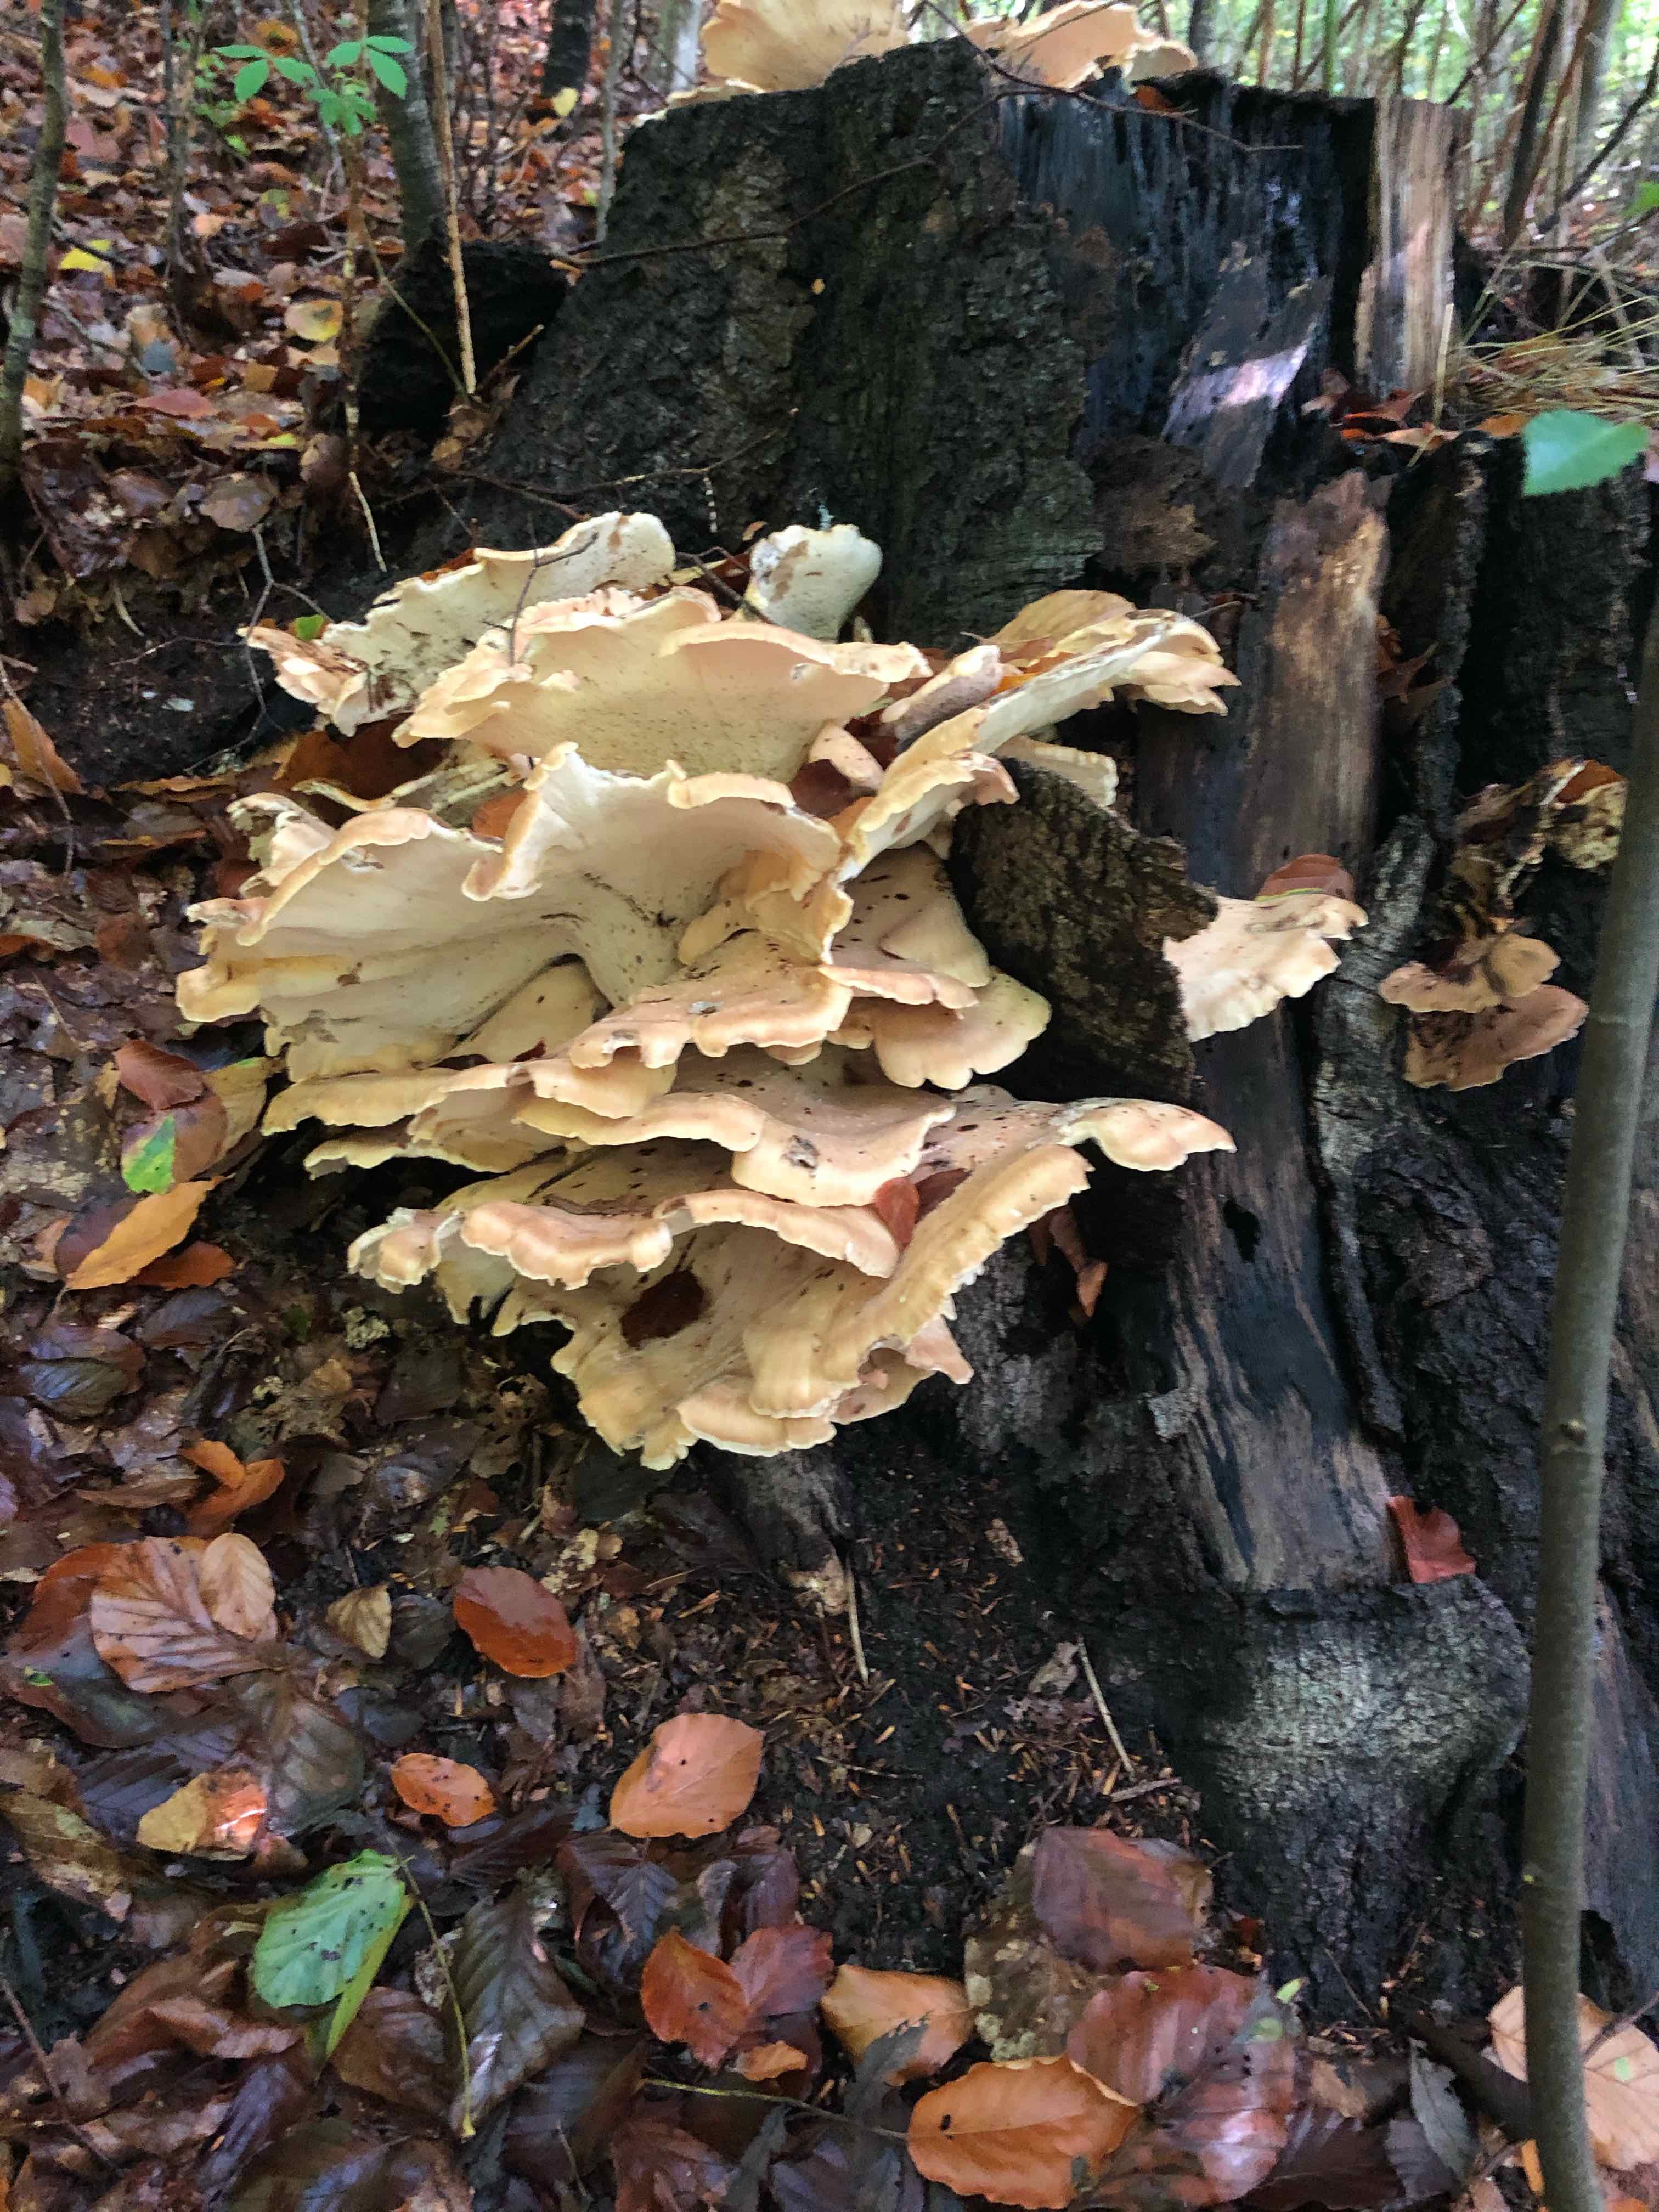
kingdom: Fungi
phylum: Basidiomycota
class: Agaricomycetes
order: Polyporales
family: Meripilaceae
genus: Meripilus
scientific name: Meripilus giganteus
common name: kæmpeporesvamp
